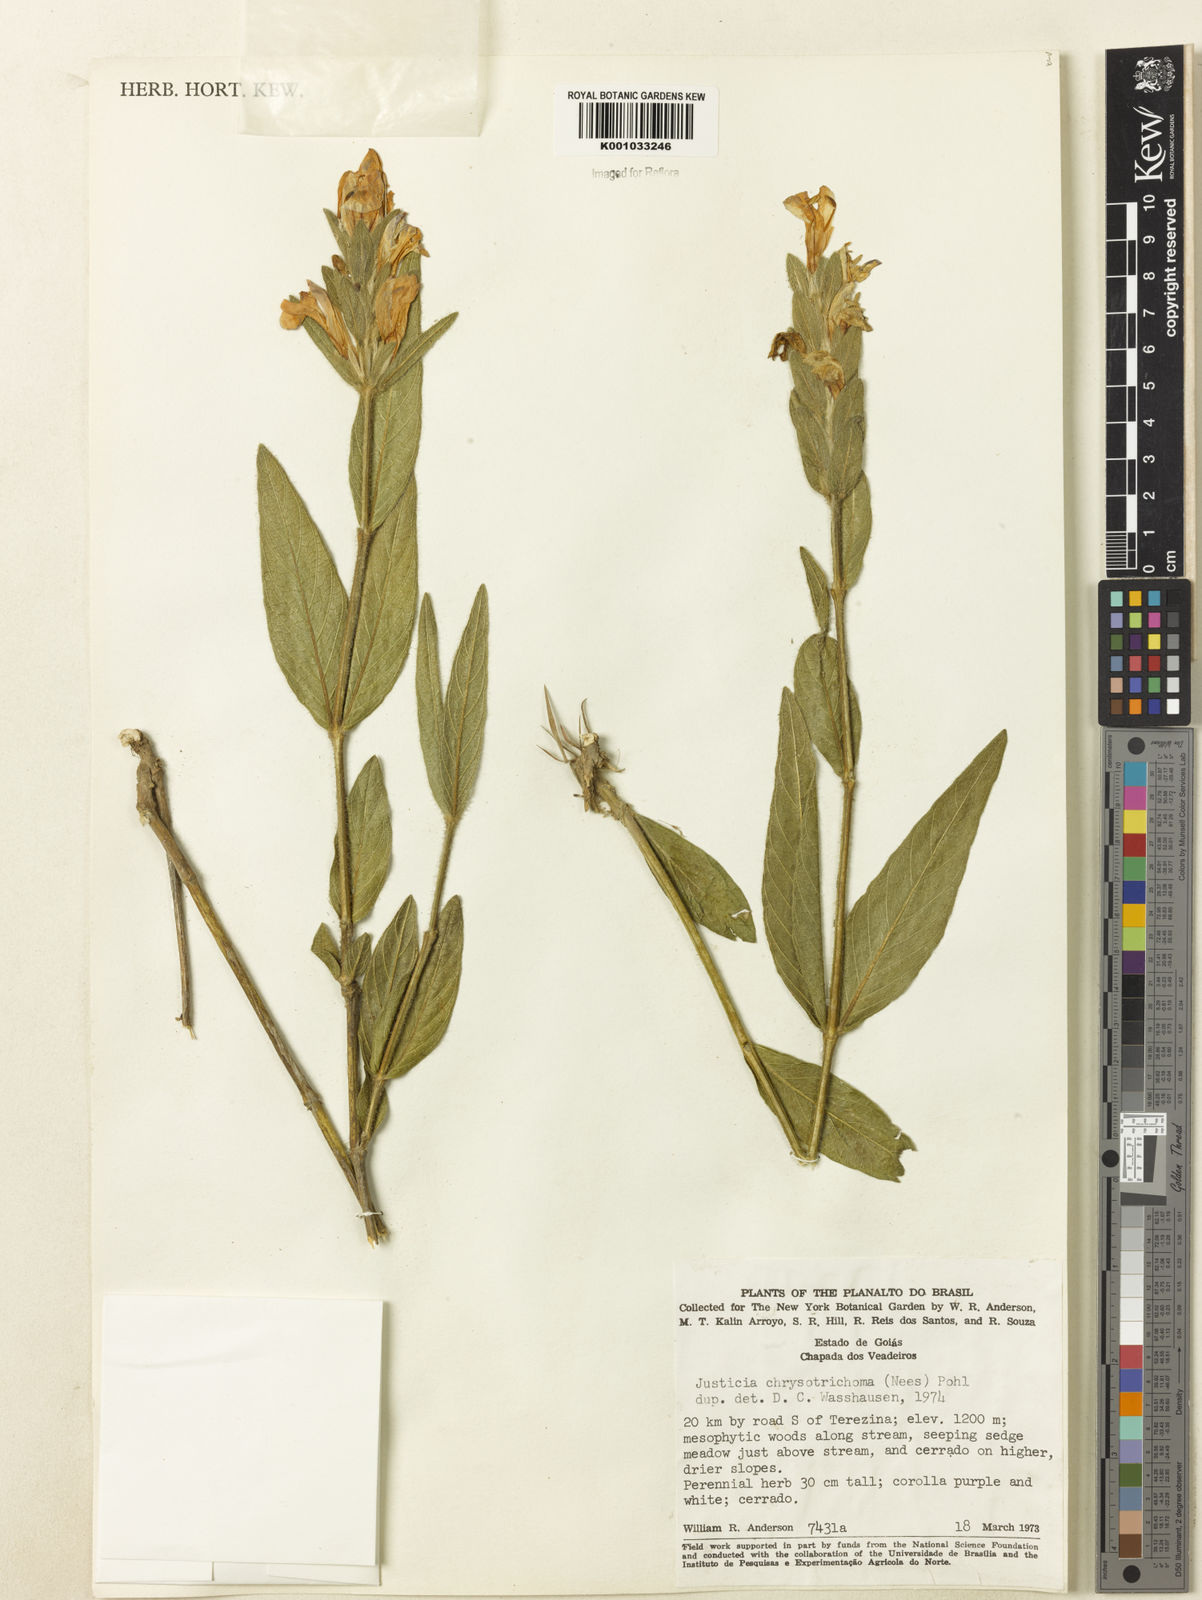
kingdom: Plantae
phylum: Tracheophyta
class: Magnoliopsida
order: Lamiales
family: Acanthaceae
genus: Justicia
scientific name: Justicia chrysotrichoma
